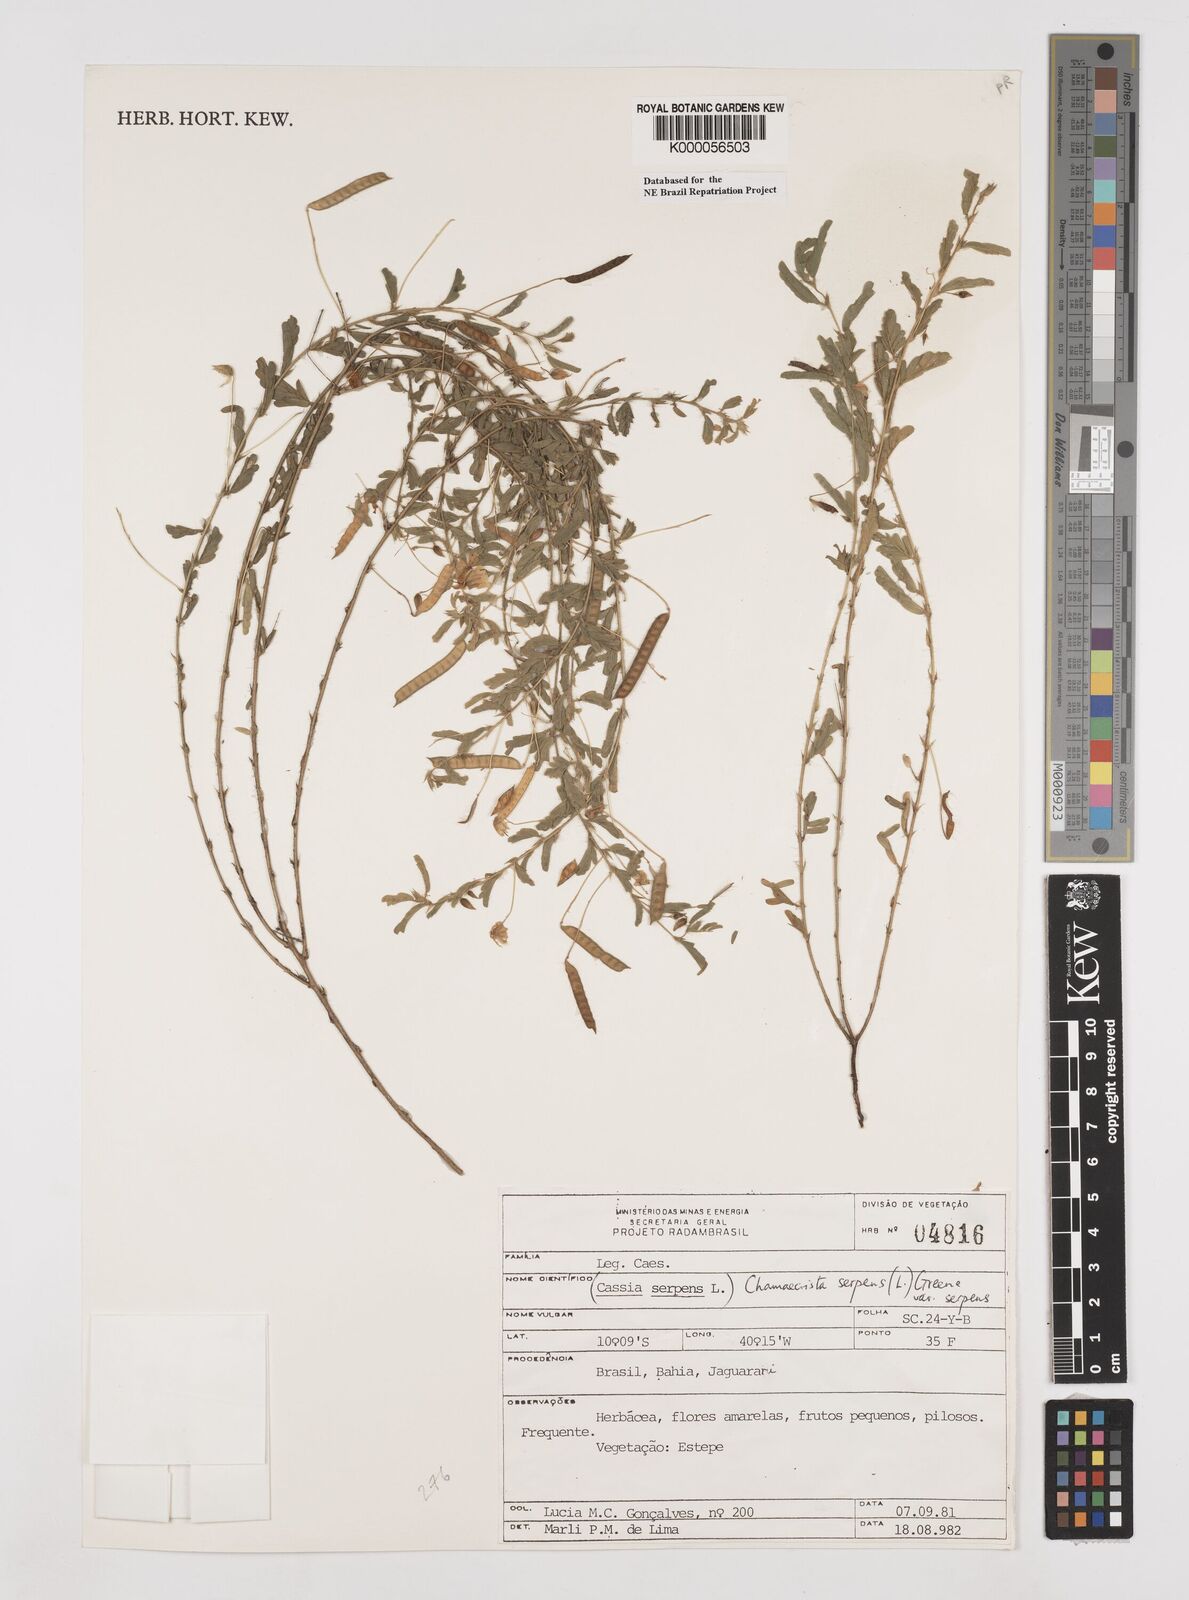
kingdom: Plantae
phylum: Tracheophyta
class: Magnoliopsida
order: Fabales
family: Fabaceae
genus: Chamaecrista
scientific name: Chamaecrista serpens
